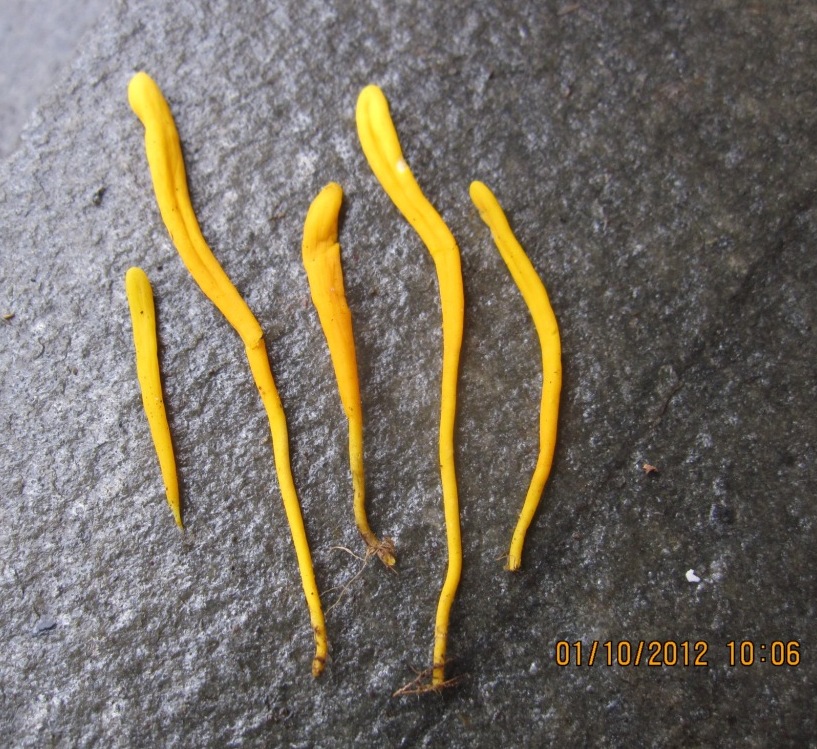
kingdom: Fungi
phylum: Basidiomycota
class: Agaricomycetes
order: Agaricales
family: Clavariaceae
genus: Clavulinopsis
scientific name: Clavulinopsis helvola
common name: orangegul køllesvamp
